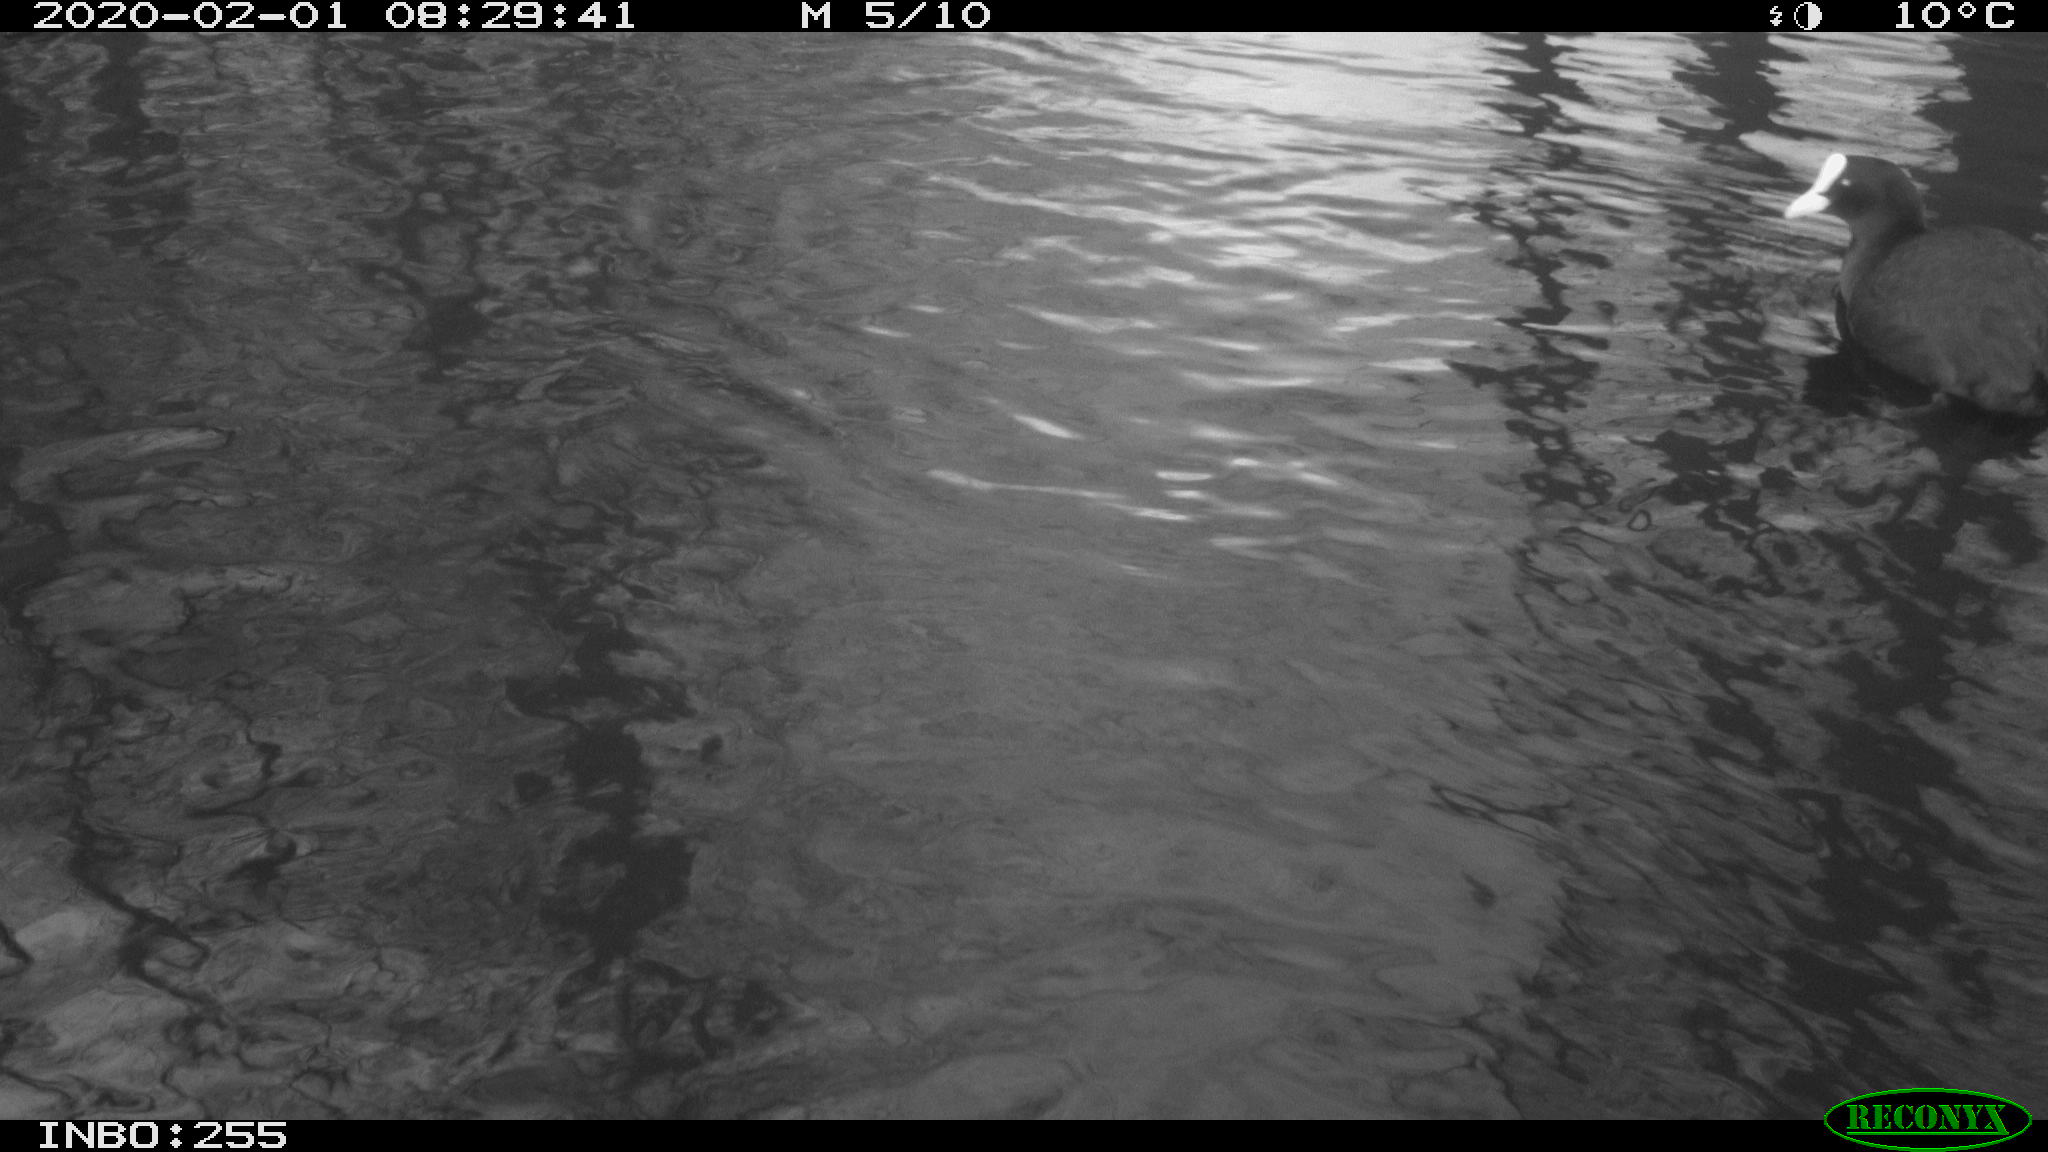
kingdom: Animalia
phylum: Chordata
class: Aves
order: Gruiformes
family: Rallidae
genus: Fulica
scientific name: Fulica atra
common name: Eurasian coot
